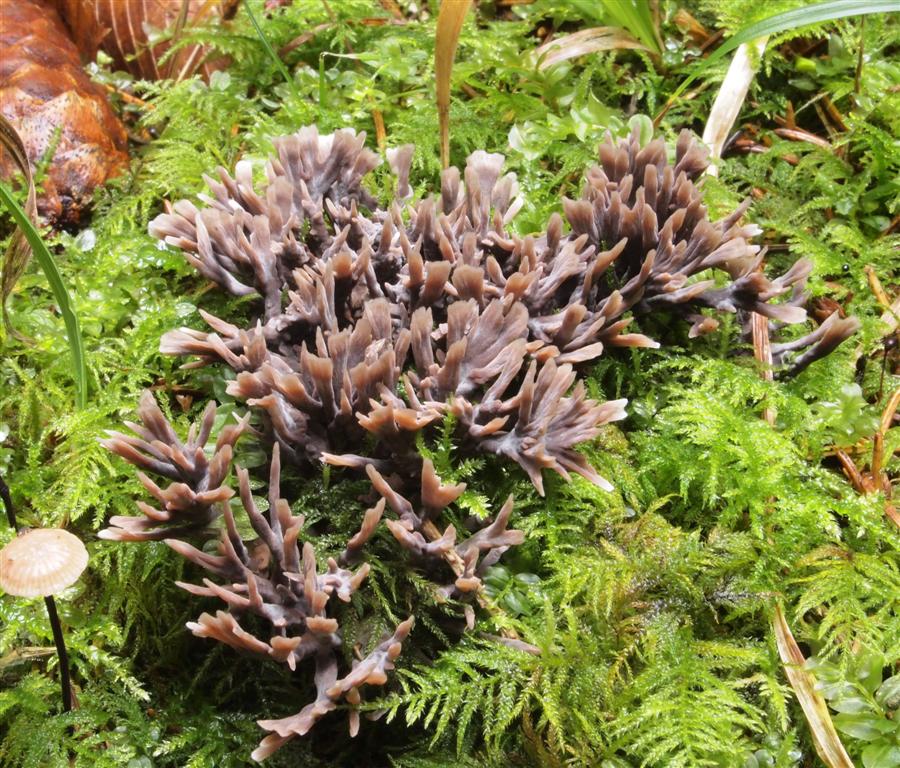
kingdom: Fungi
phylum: Basidiomycota
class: Agaricomycetes
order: Thelephorales
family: Thelephoraceae
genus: Thelephora
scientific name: Thelephora palmata
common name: grenet frynsesvamp
